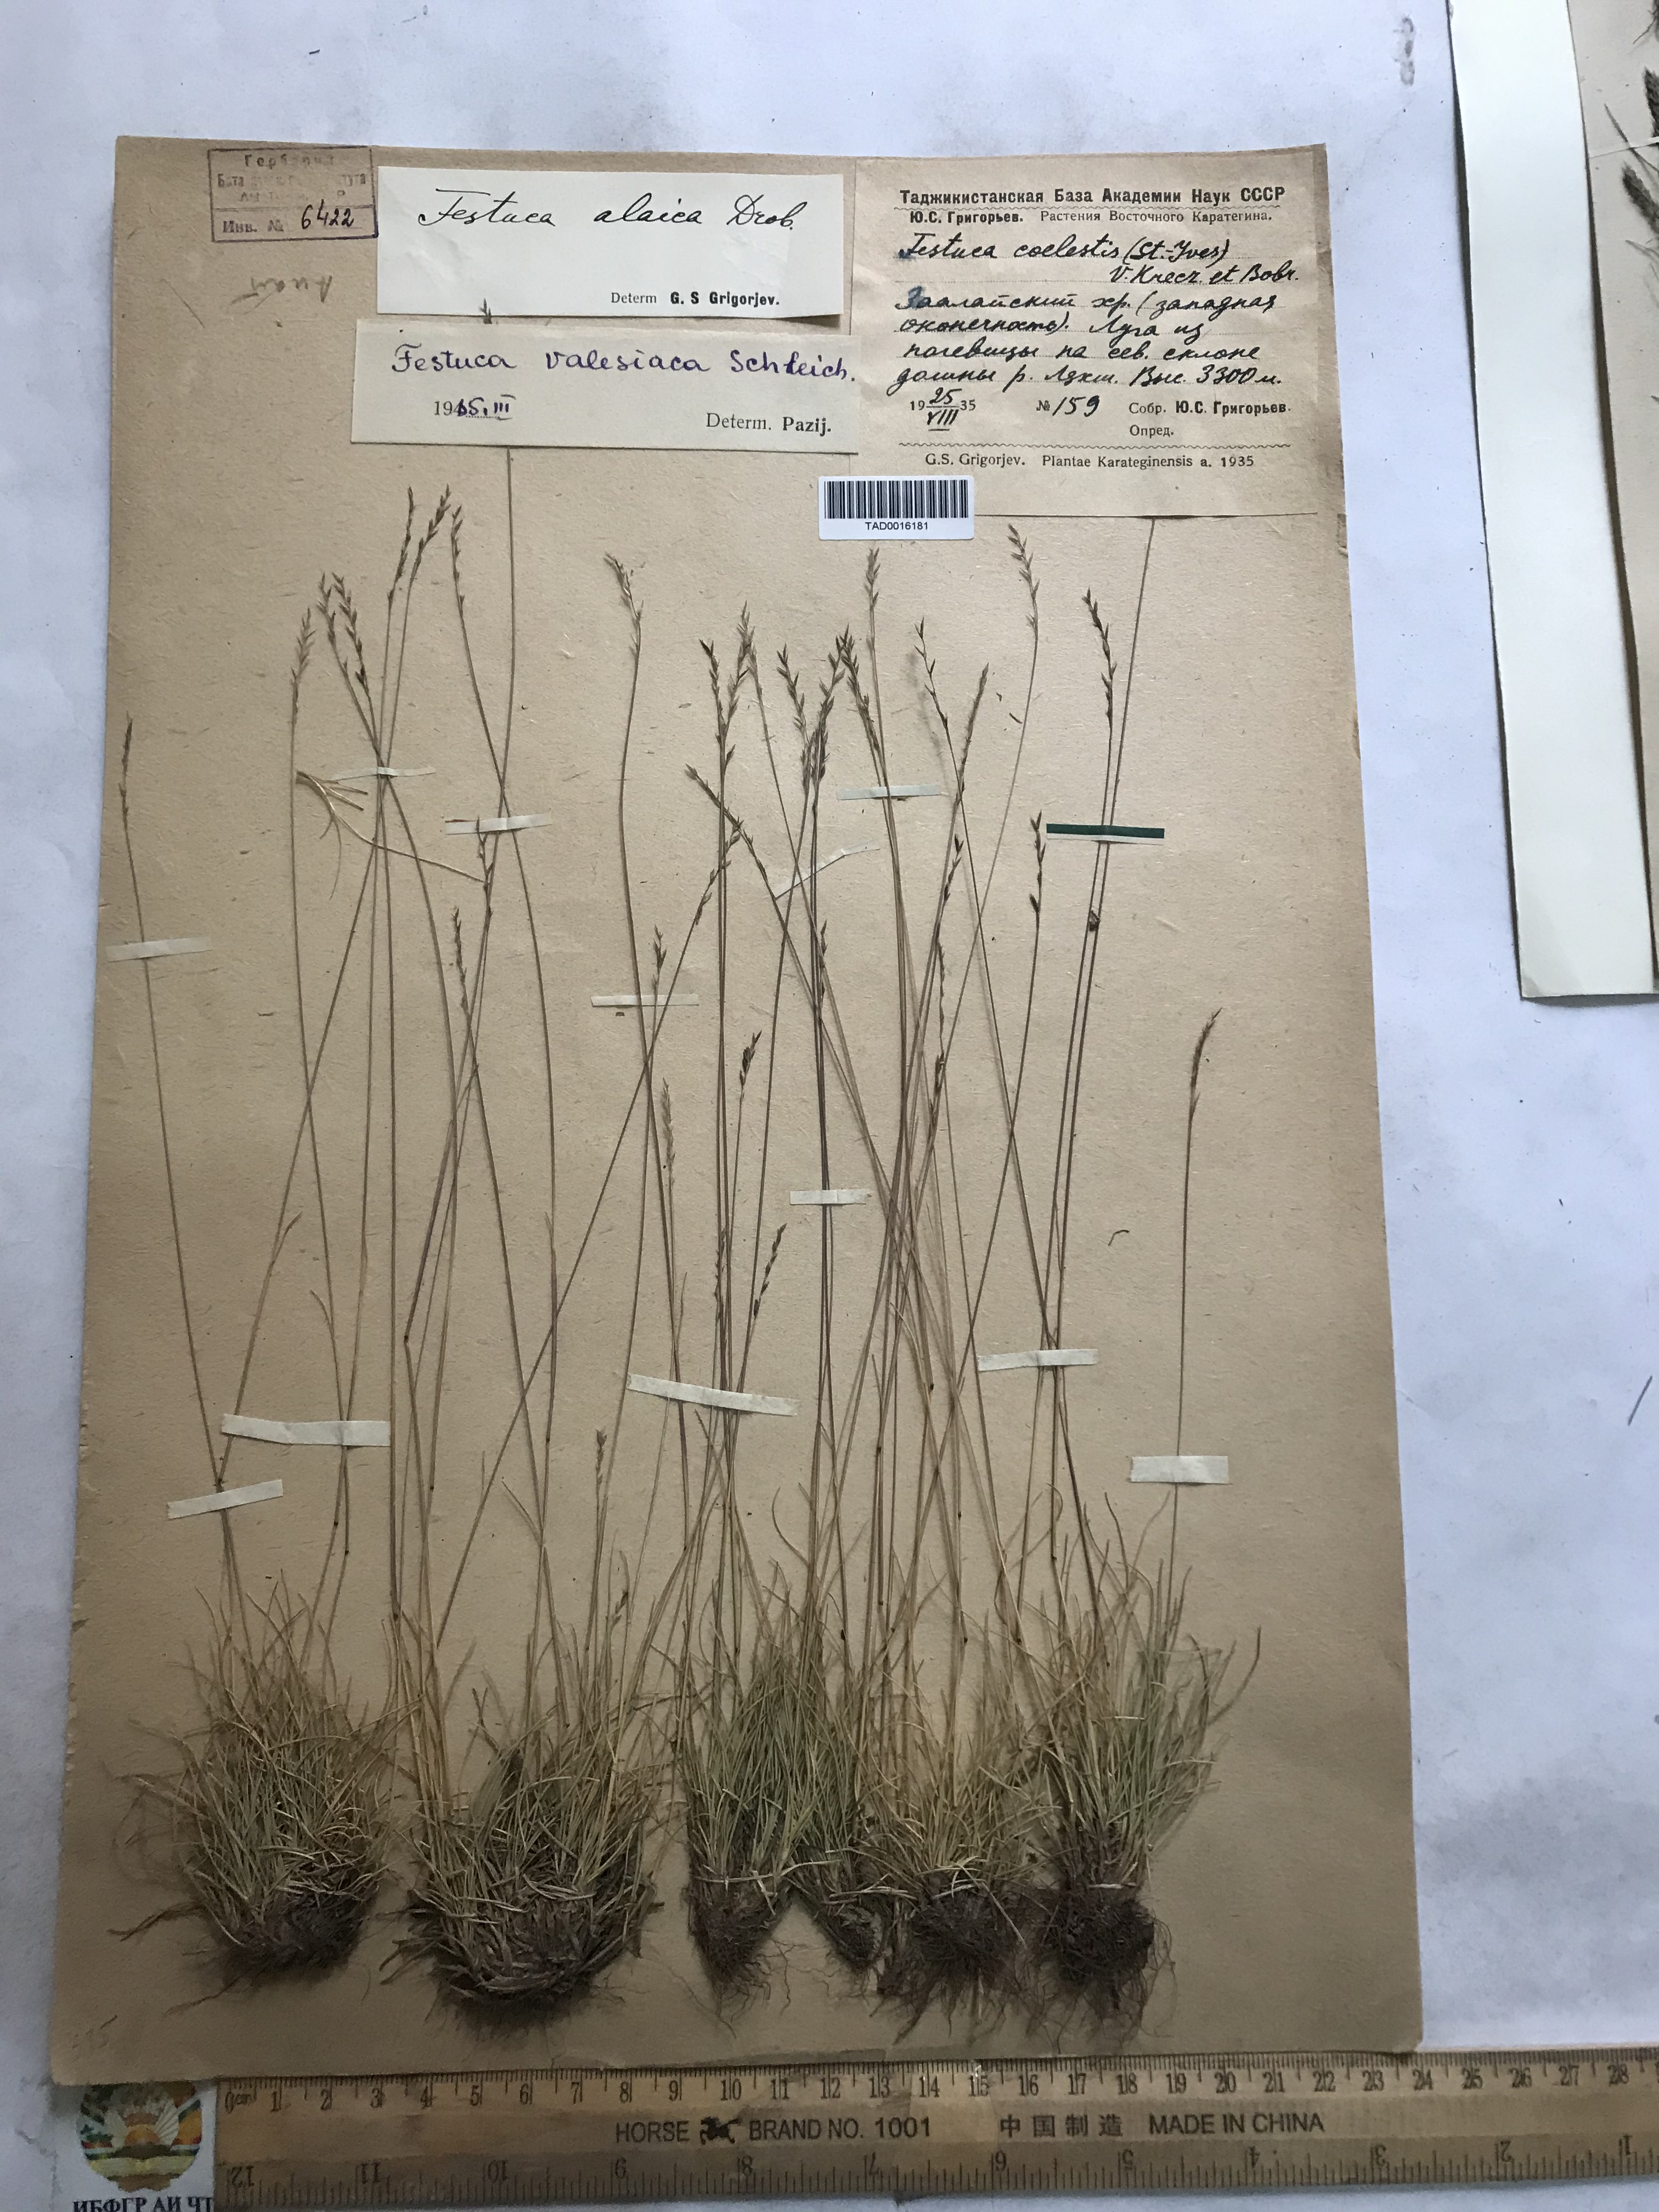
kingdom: Plantae
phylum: Tracheophyta
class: Liliopsida
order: Poales
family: Poaceae
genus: Festuca
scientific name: Festuca valesiaca
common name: Volga fescue
